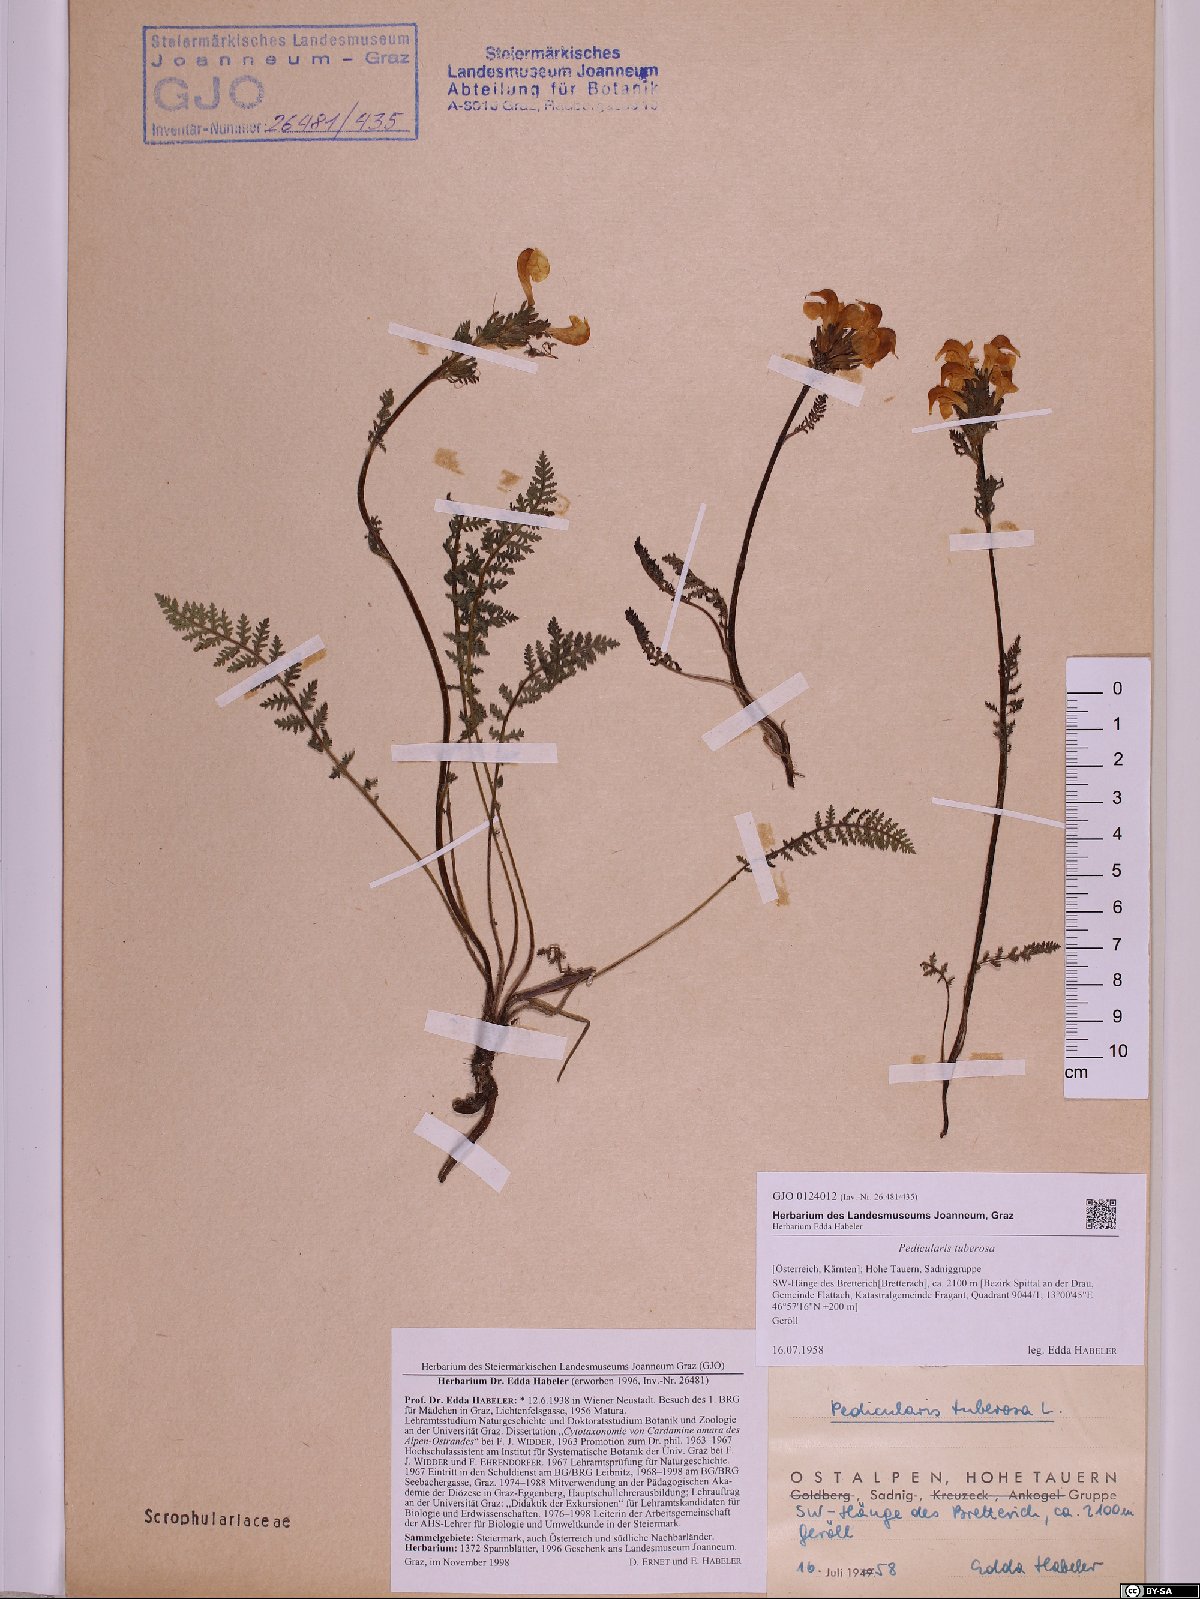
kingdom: Plantae
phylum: Tracheophyta
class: Magnoliopsida
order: Lamiales
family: Orobanchaceae
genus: Pedicularis
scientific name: Pedicularis tuberosa
